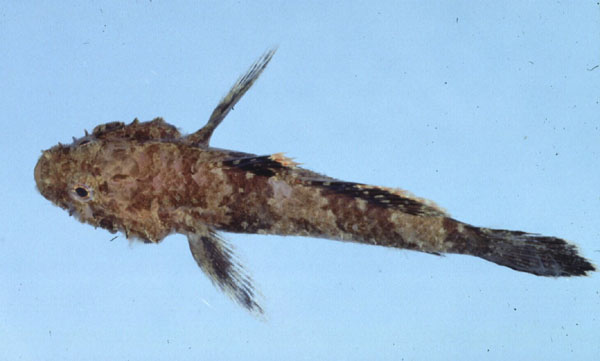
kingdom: Animalia
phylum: Chordata
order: Perciformes
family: Gobiidae
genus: Callogobius
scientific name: Callogobius maculipinnis
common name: Ostrich goby
